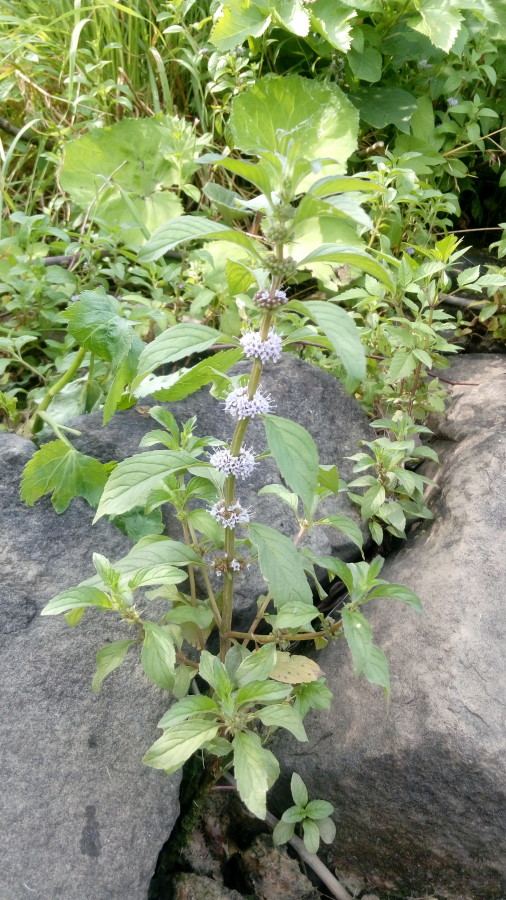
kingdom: Plantae
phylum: Tracheophyta
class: Magnoliopsida
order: Lamiales
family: Lamiaceae
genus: Mentha
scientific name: Mentha arvensis
